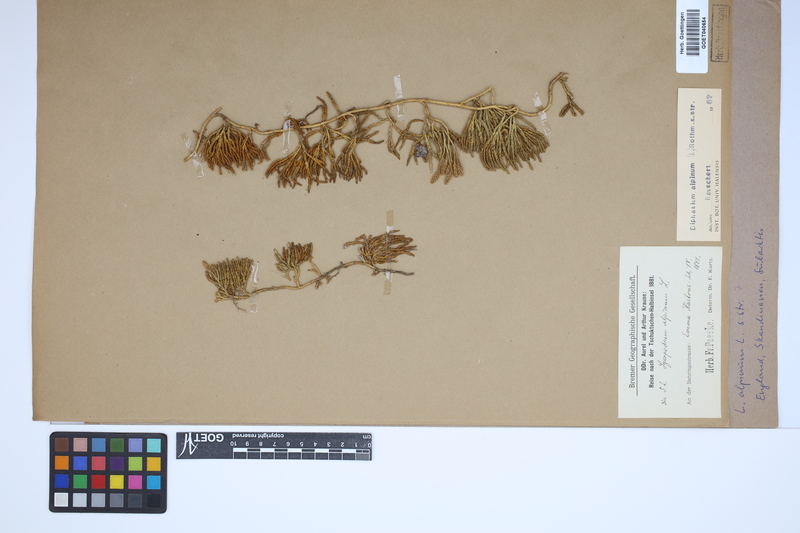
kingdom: Plantae
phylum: Tracheophyta
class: Lycopodiopsida
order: Lycopodiales
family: Lycopodiaceae
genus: Diphasiastrum
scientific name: Diphasiastrum alpinum
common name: Alpine clubmoss
